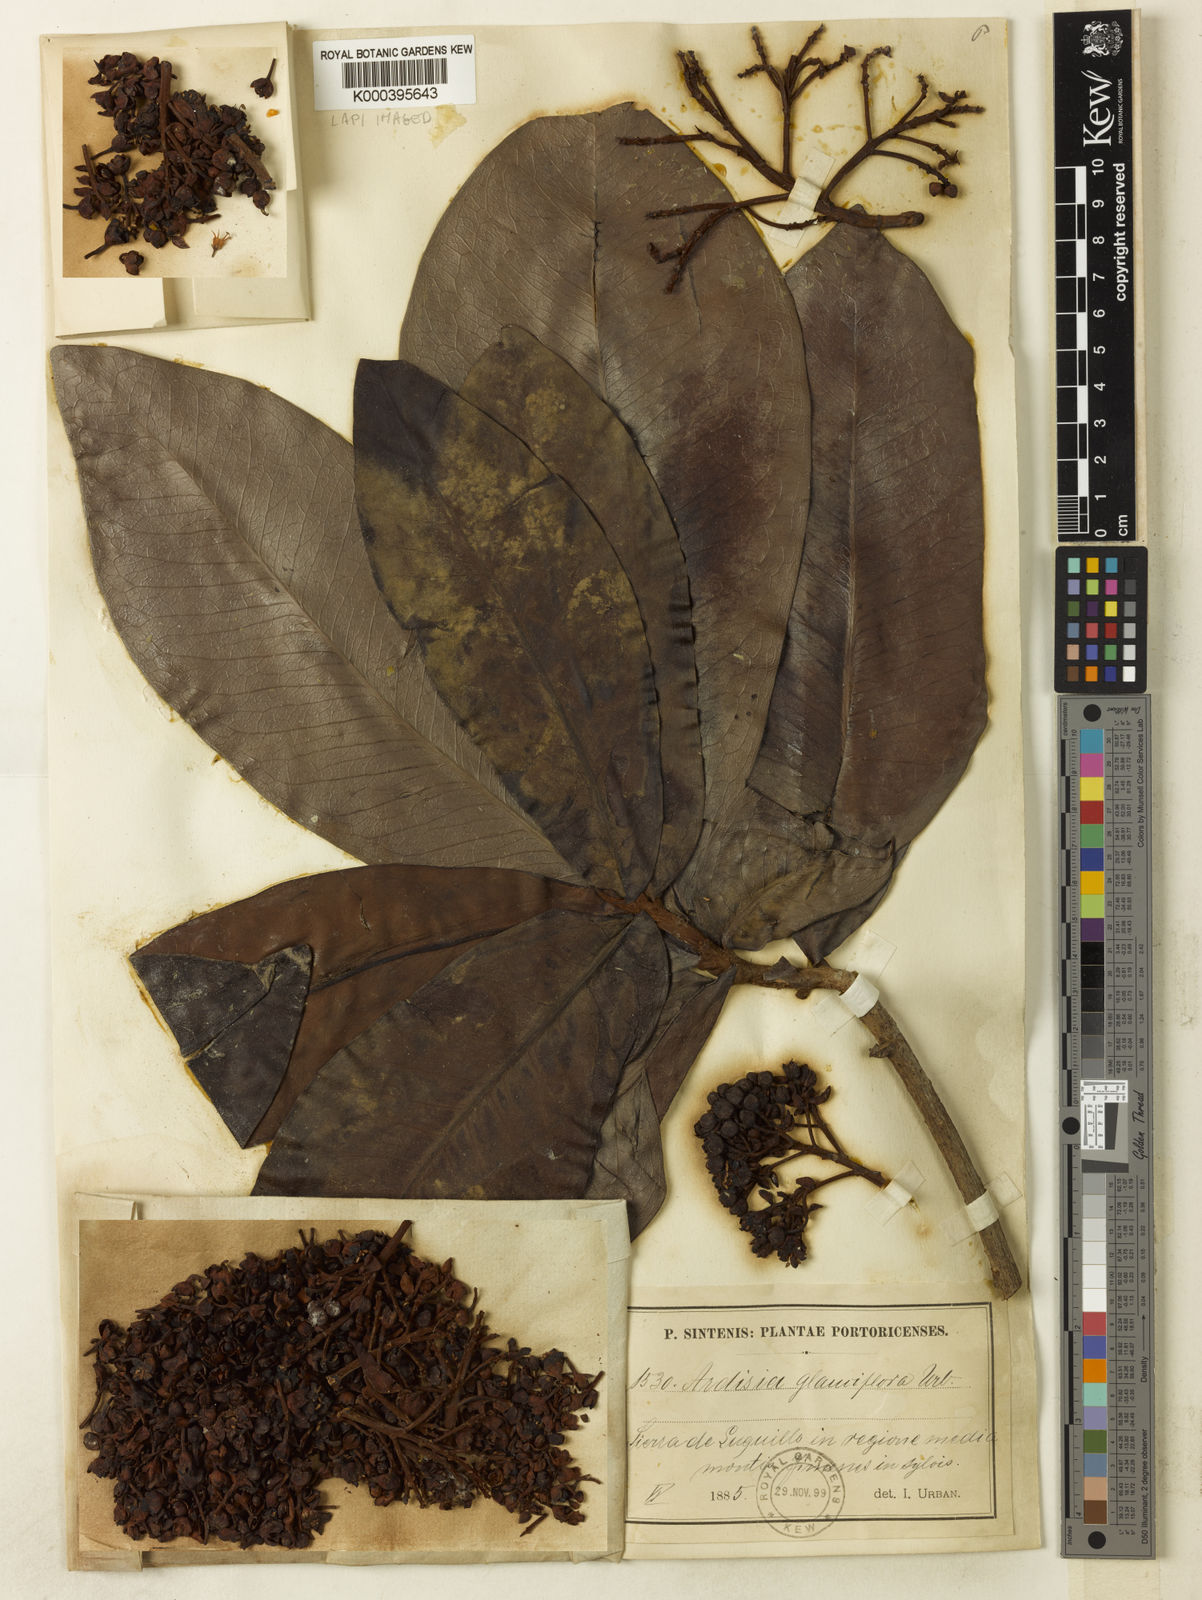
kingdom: Plantae
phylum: Tracheophyta
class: Magnoliopsida
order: Ericales
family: Primulaceae
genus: Ardisia
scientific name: Ardisia glauciflora
